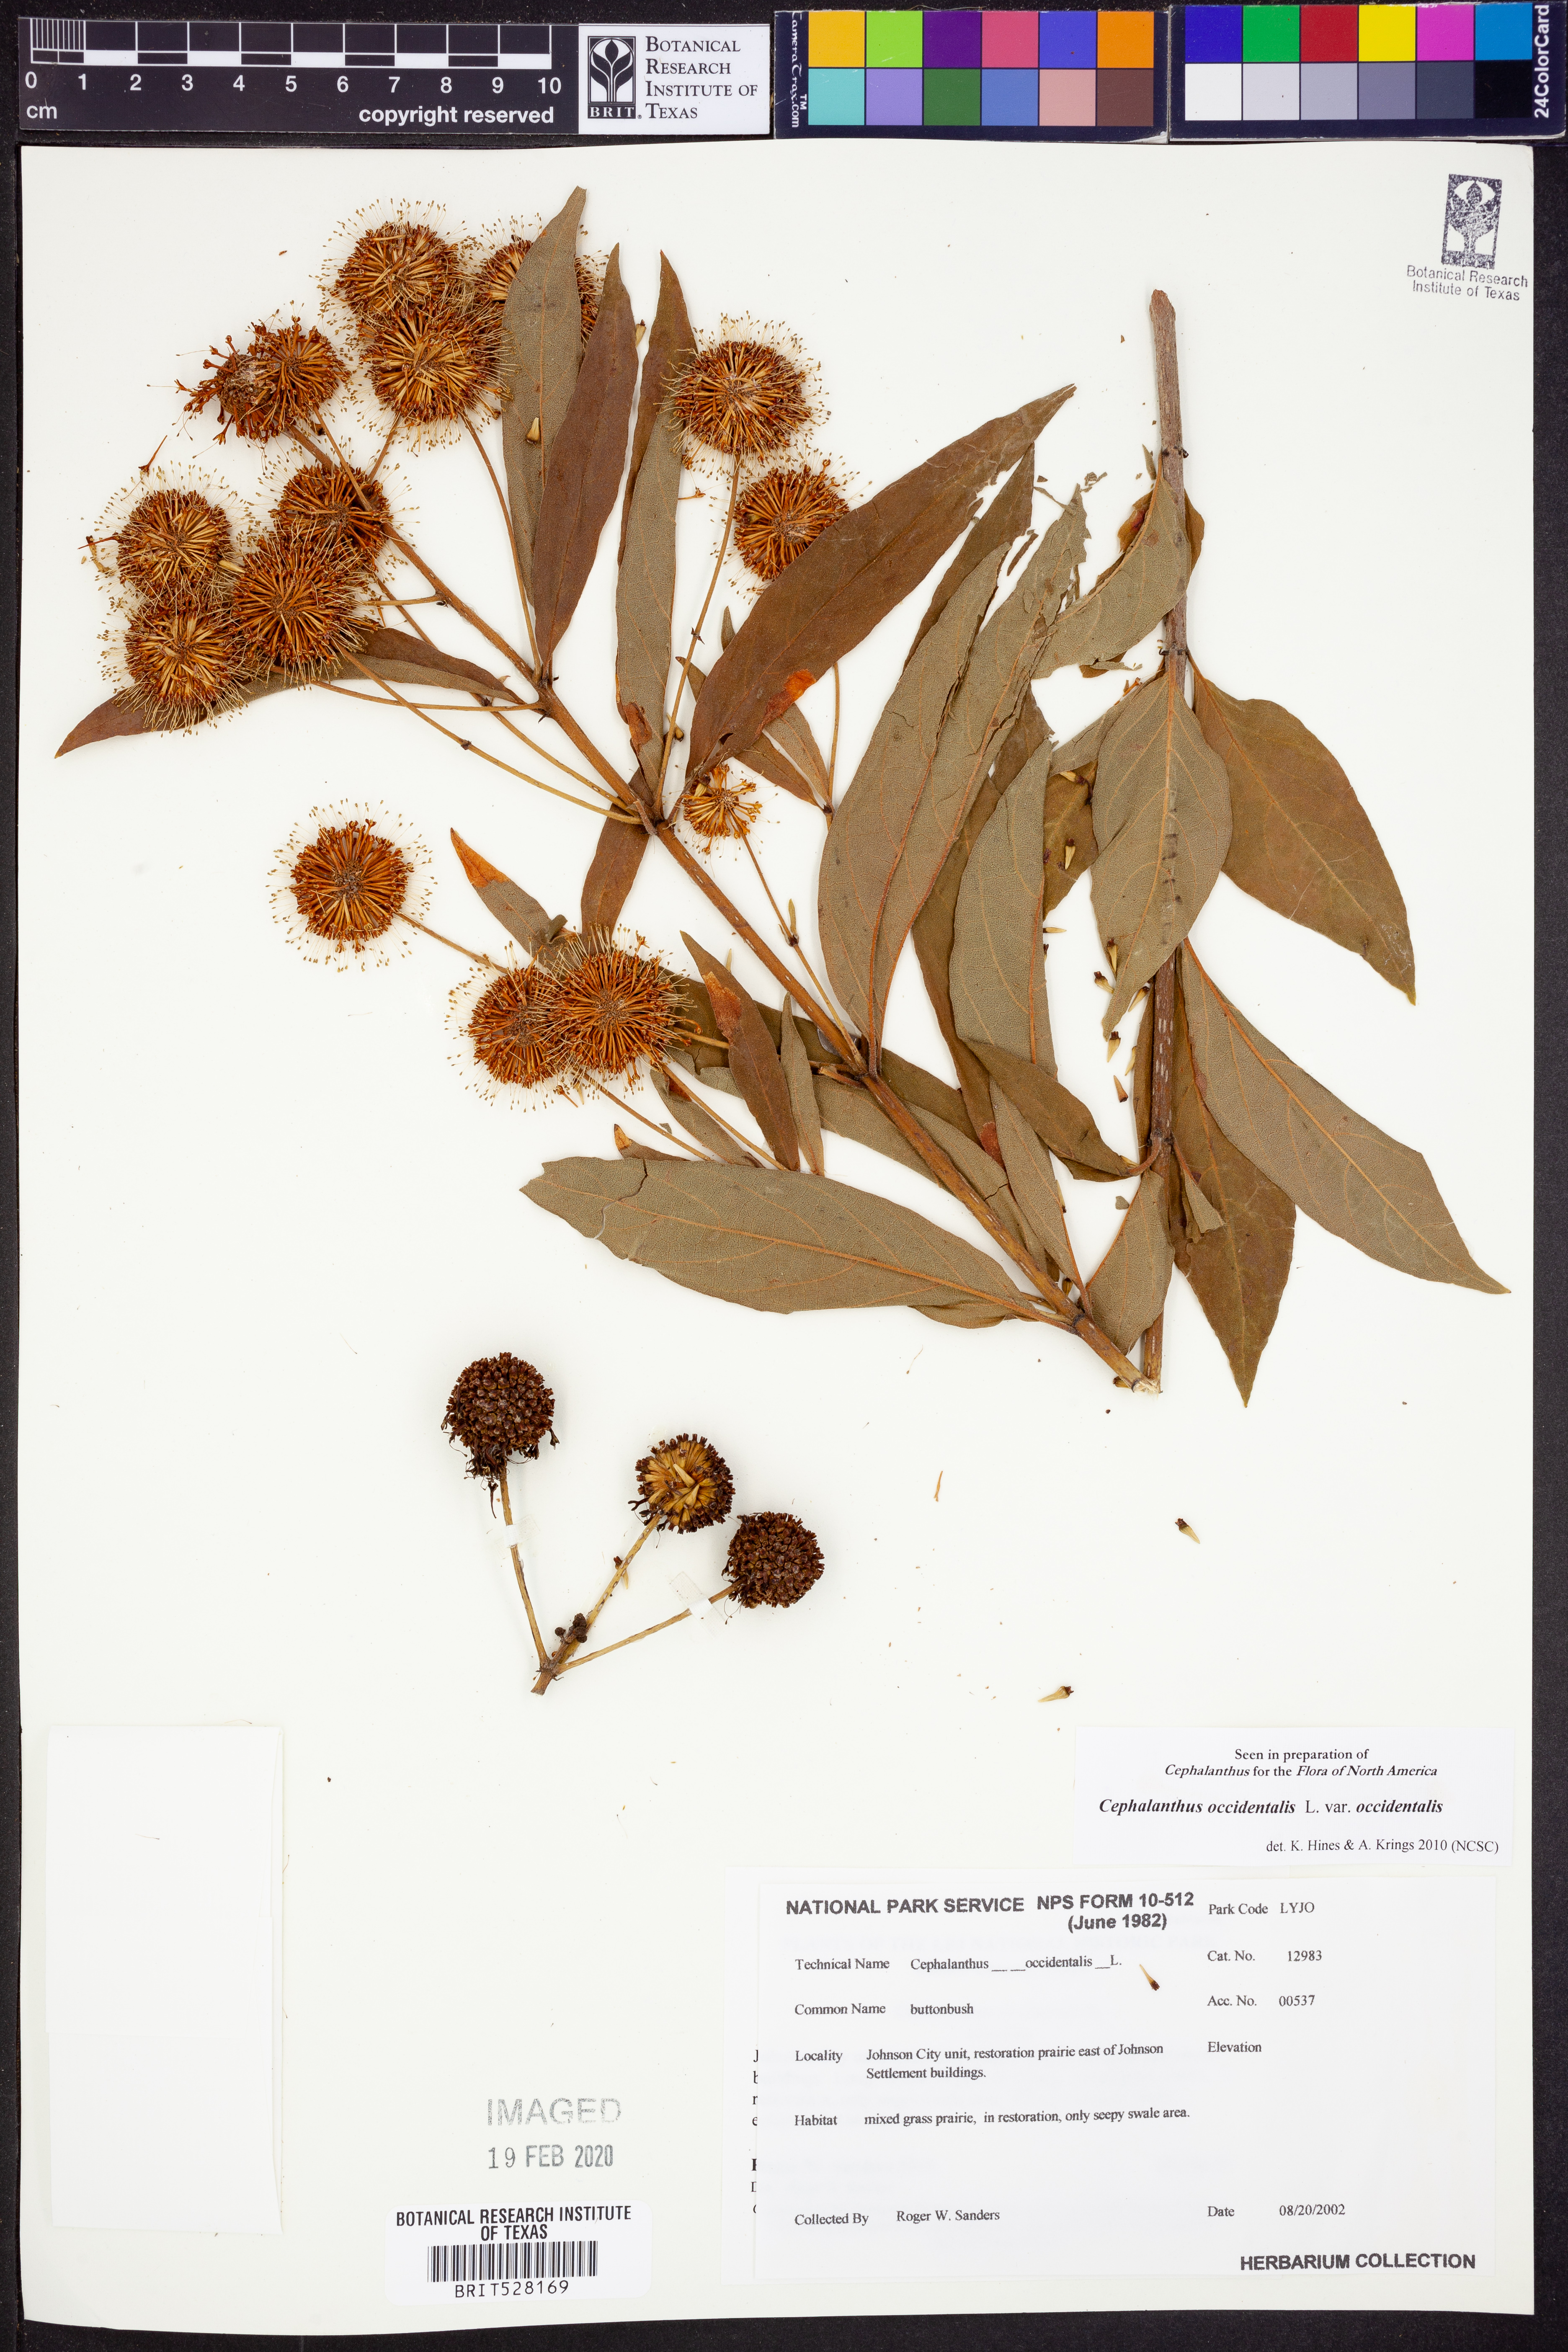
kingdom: Plantae
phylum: Tracheophyta
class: Magnoliopsida
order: Gentianales
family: Rubiaceae
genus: Cephalanthus
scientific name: Cephalanthus occidentalis
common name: Button-willow
